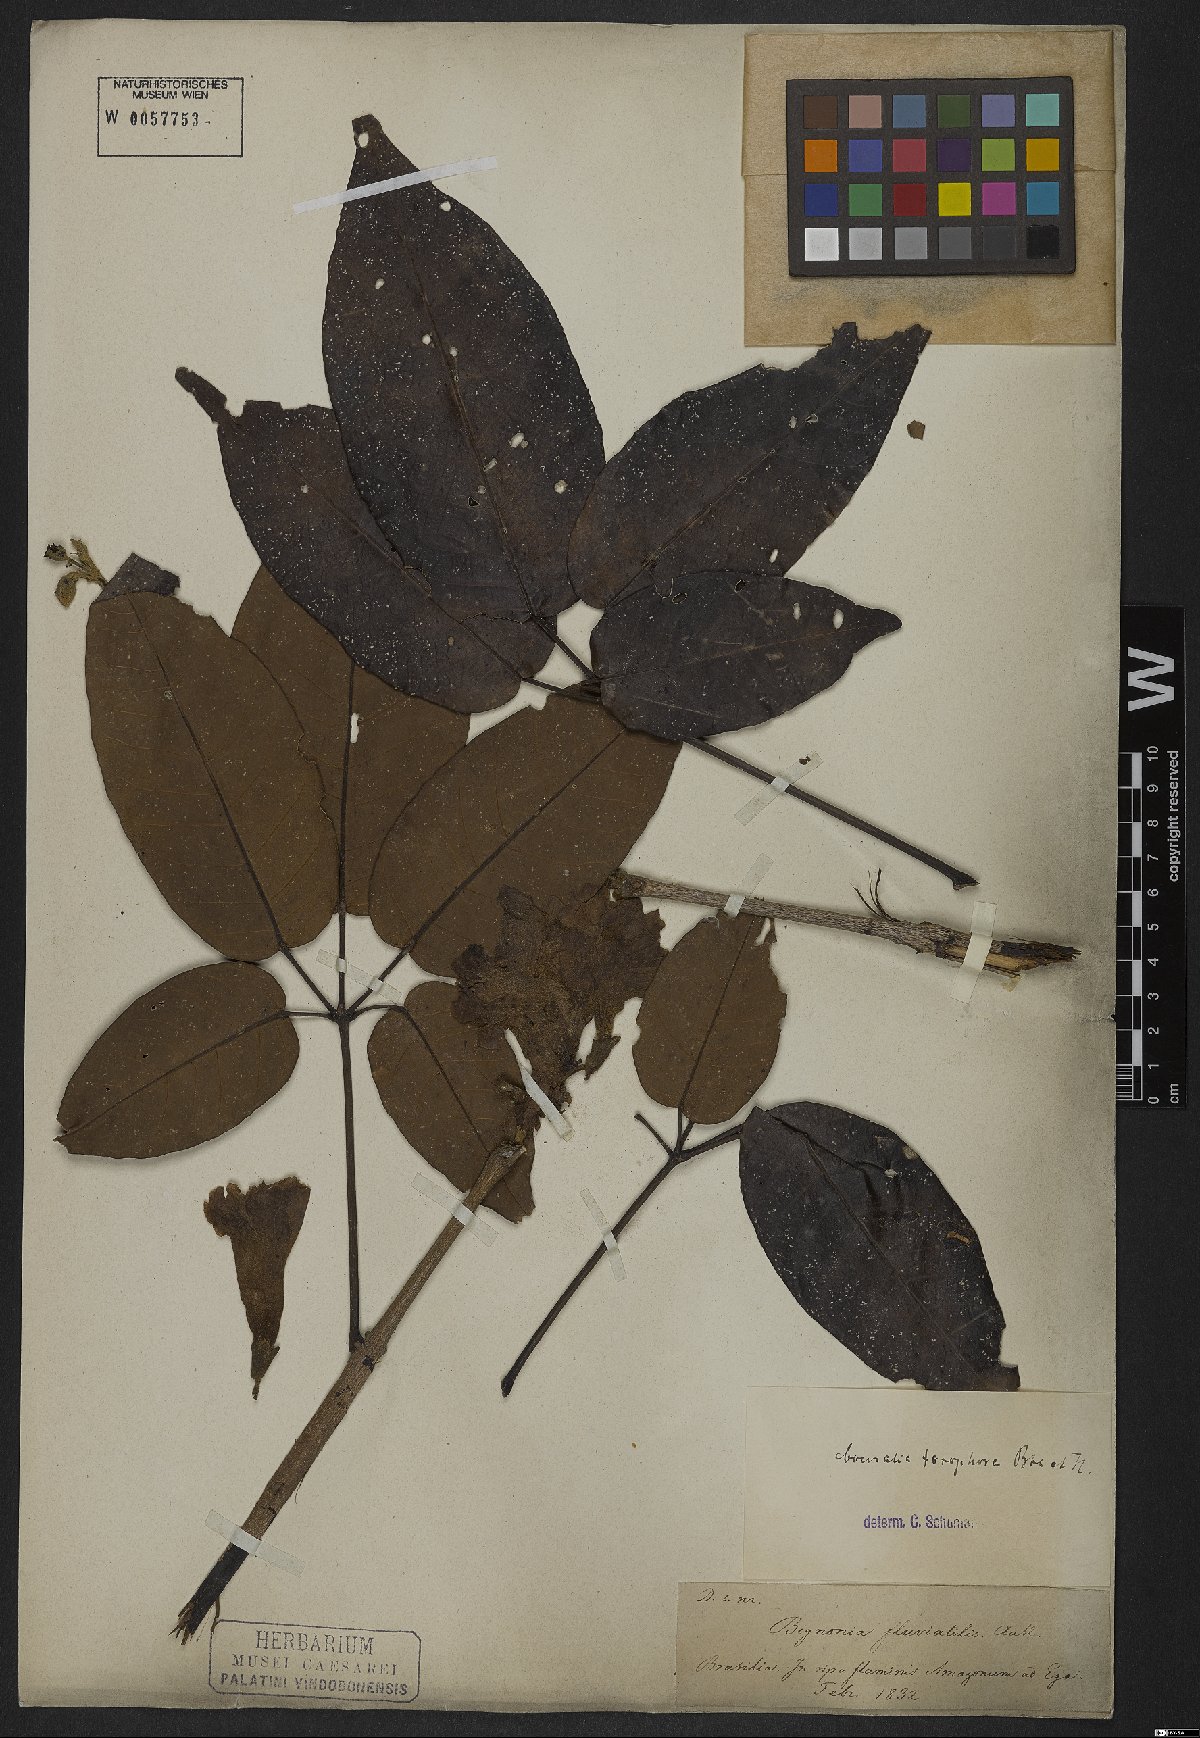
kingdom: Plantae
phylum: Tracheophyta
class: Magnoliopsida
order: Lamiales
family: Bignoniaceae
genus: Tabebuia
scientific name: Tabebuia fluviatilis
